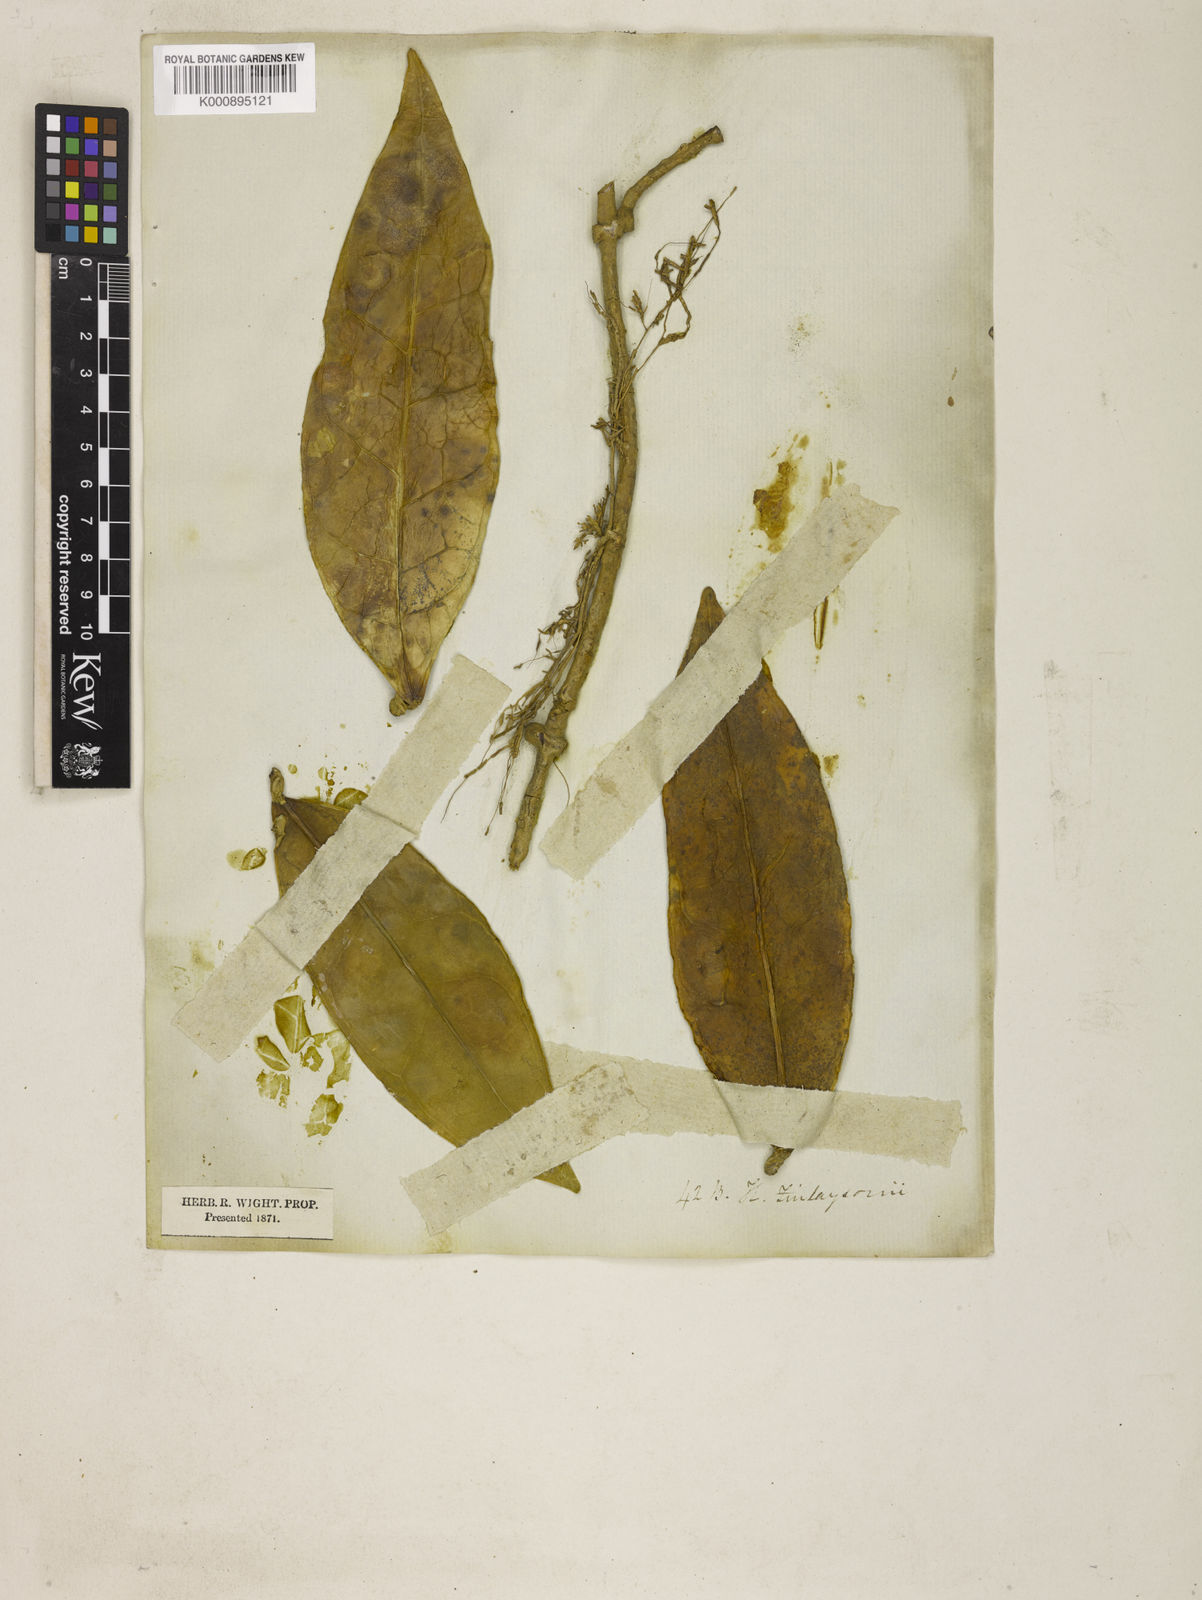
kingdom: Plantae
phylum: Tracheophyta
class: Magnoliopsida
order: Gentianales
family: Apocynaceae
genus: Hoya
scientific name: Hoya finlaysonii
